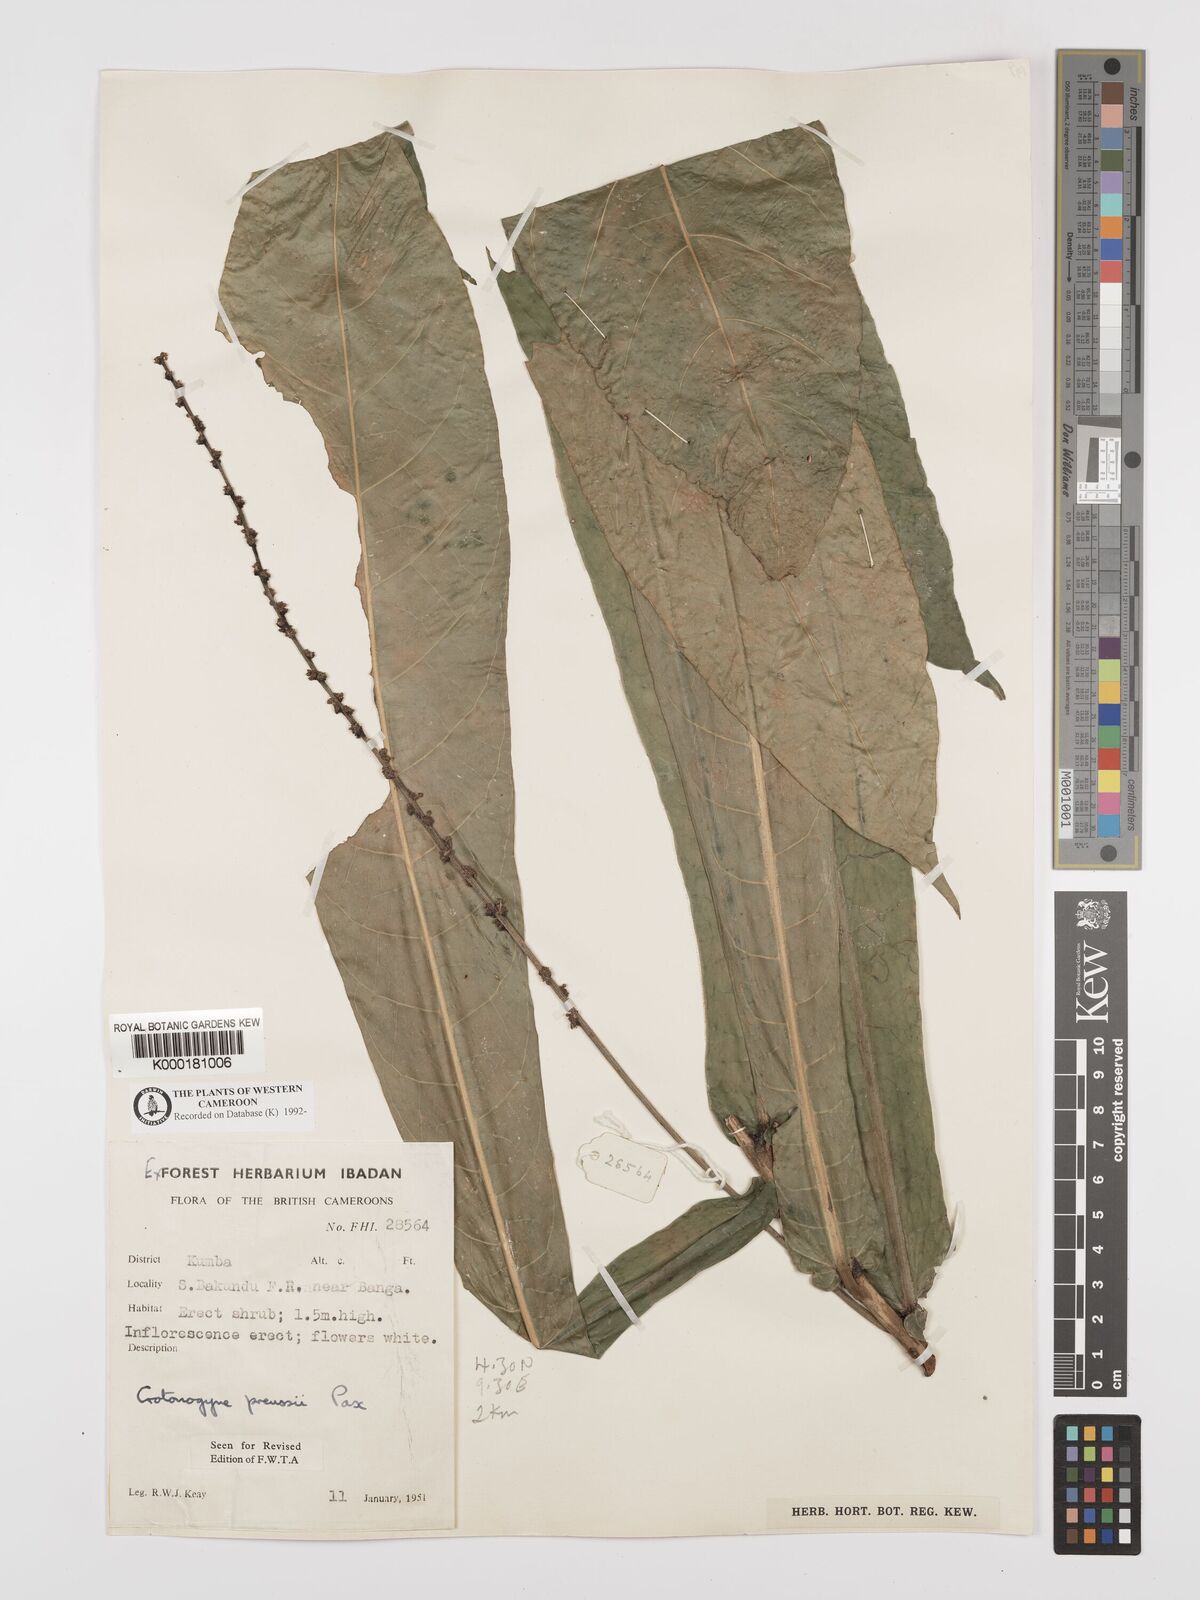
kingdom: Plantae
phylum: Tracheophyta
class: Magnoliopsida
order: Malpighiales
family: Euphorbiaceae
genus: Crotonogyne
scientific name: Crotonogyne preussii
